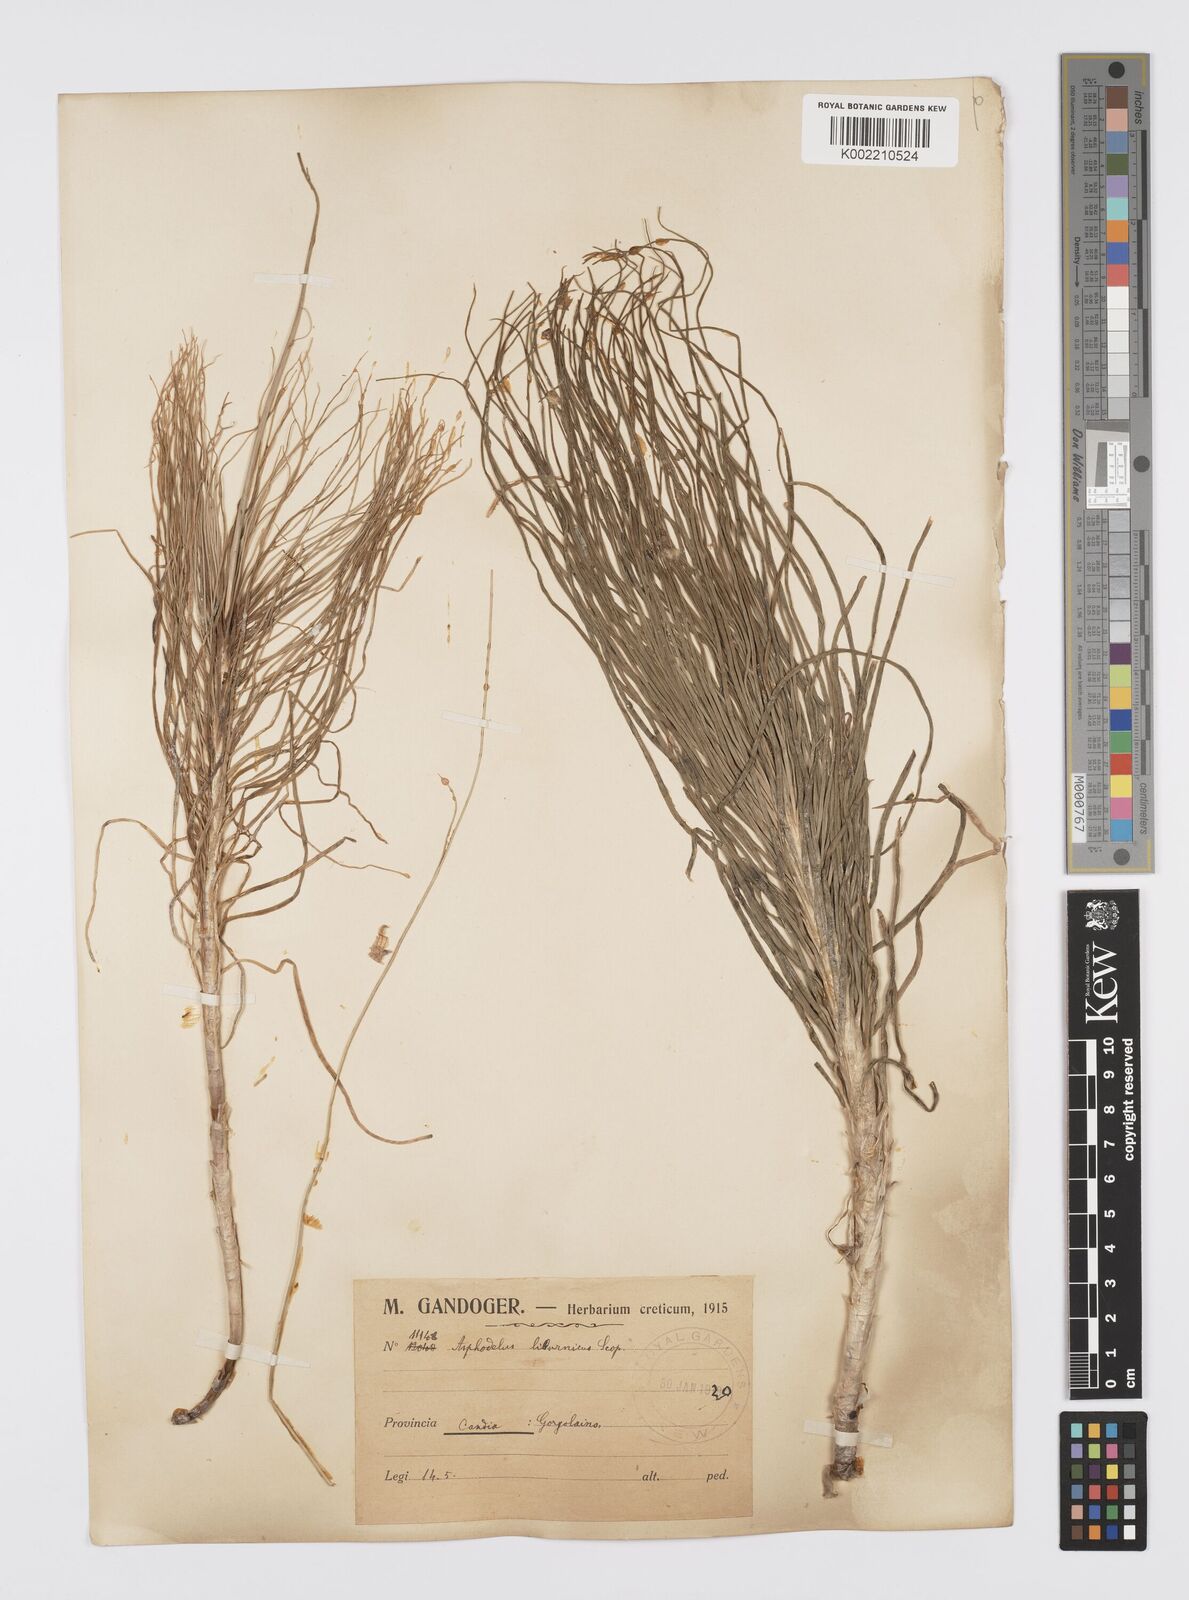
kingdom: Plantae
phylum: Tracheophyta
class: Liliopsida
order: Asparagales
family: Asphodelaceae
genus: Asphodeline
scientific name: Asphodeline liburnica
